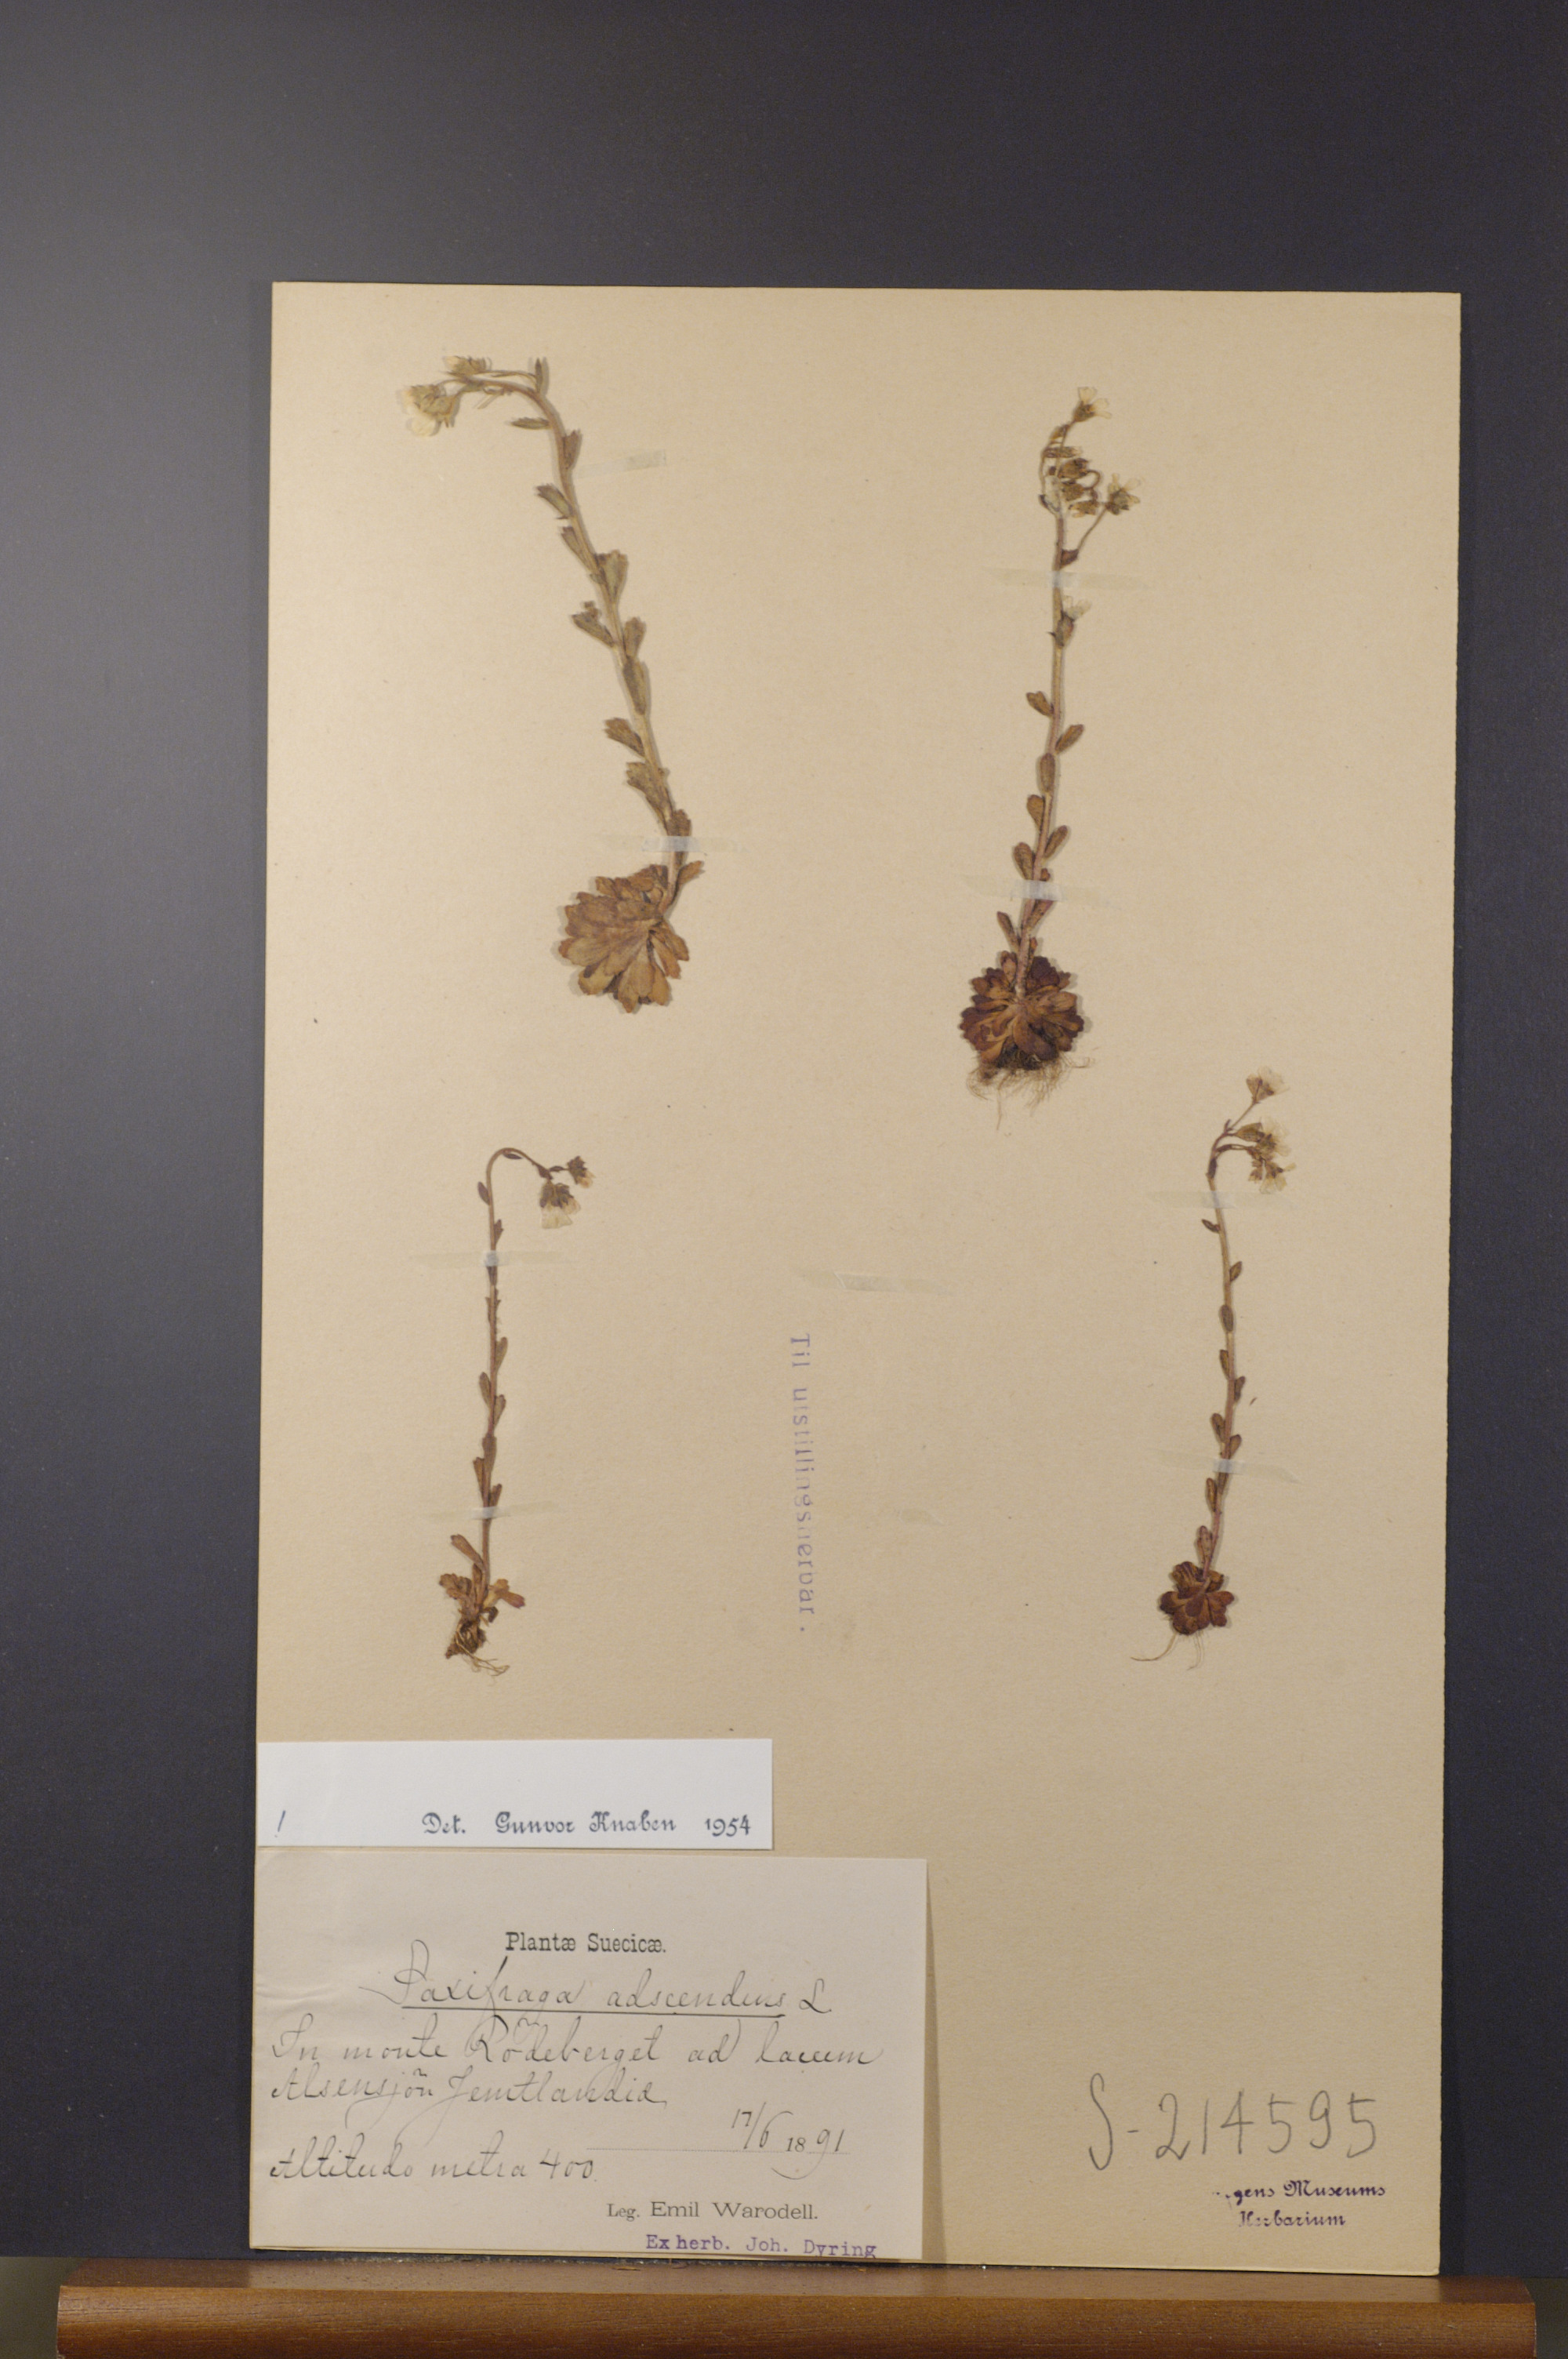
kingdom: Plantae
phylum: Tracheophyta
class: Magnoliopsida
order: Saxifragales
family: Saxifragaceae
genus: Saxifraga
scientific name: Saxifraga adscendens
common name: Ascending saxifrage
